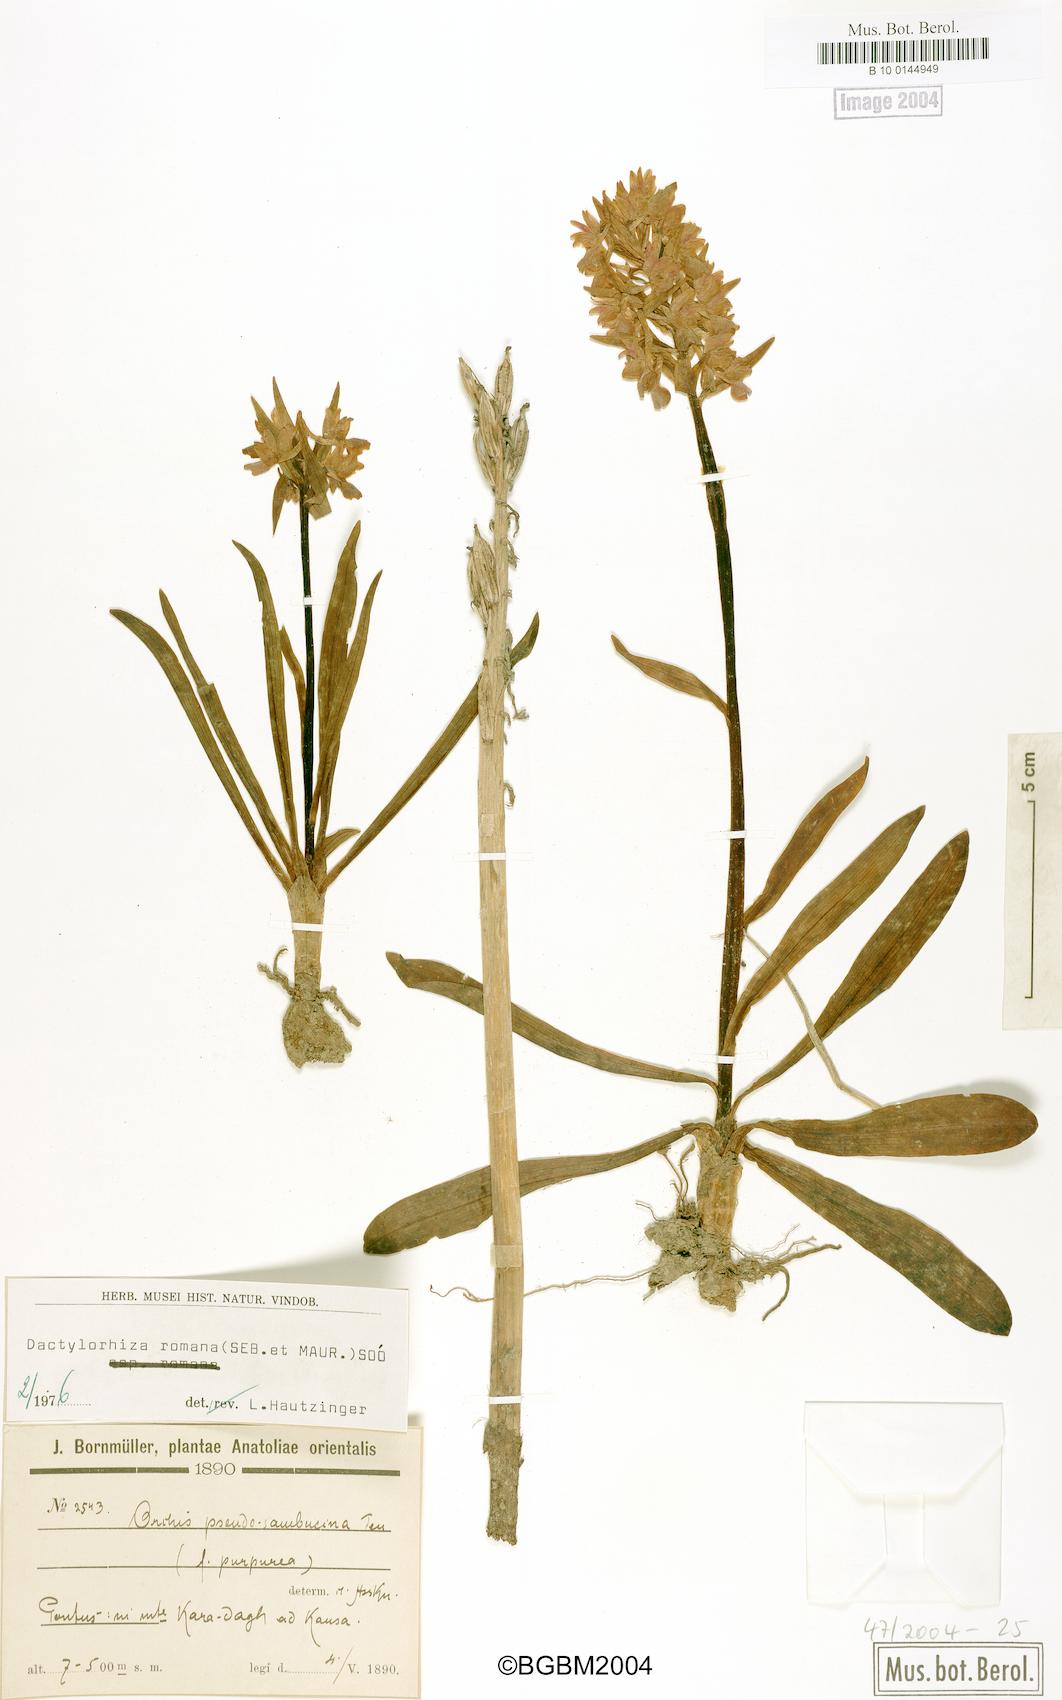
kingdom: Plantae
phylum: Tracheophyta
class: Liliopsida
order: Asparagales
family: Orchidaceae
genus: Dactylorhiza
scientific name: Dactylorhiza romana
